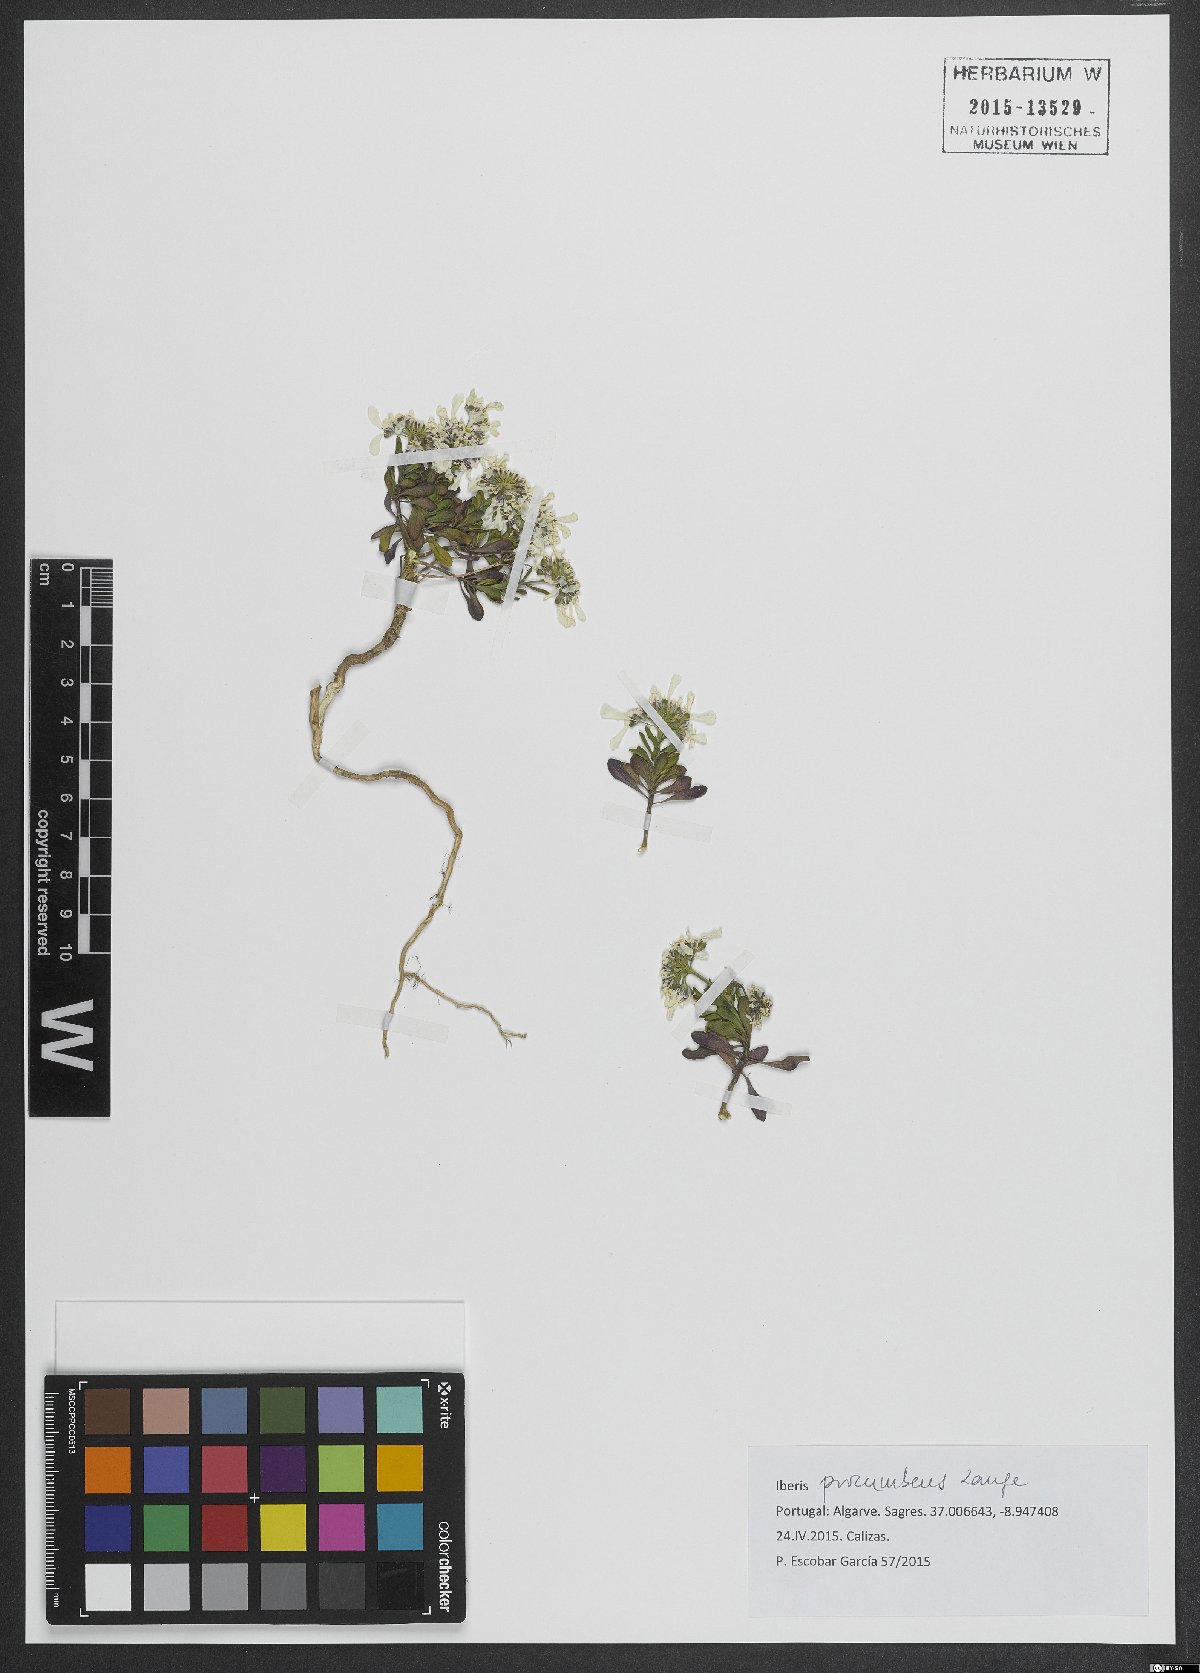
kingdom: Plantae
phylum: Tracheophyta
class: Magnoliopsida
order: Brassicales
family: Brassicaceae
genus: Iberis
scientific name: Iberis procumbens
